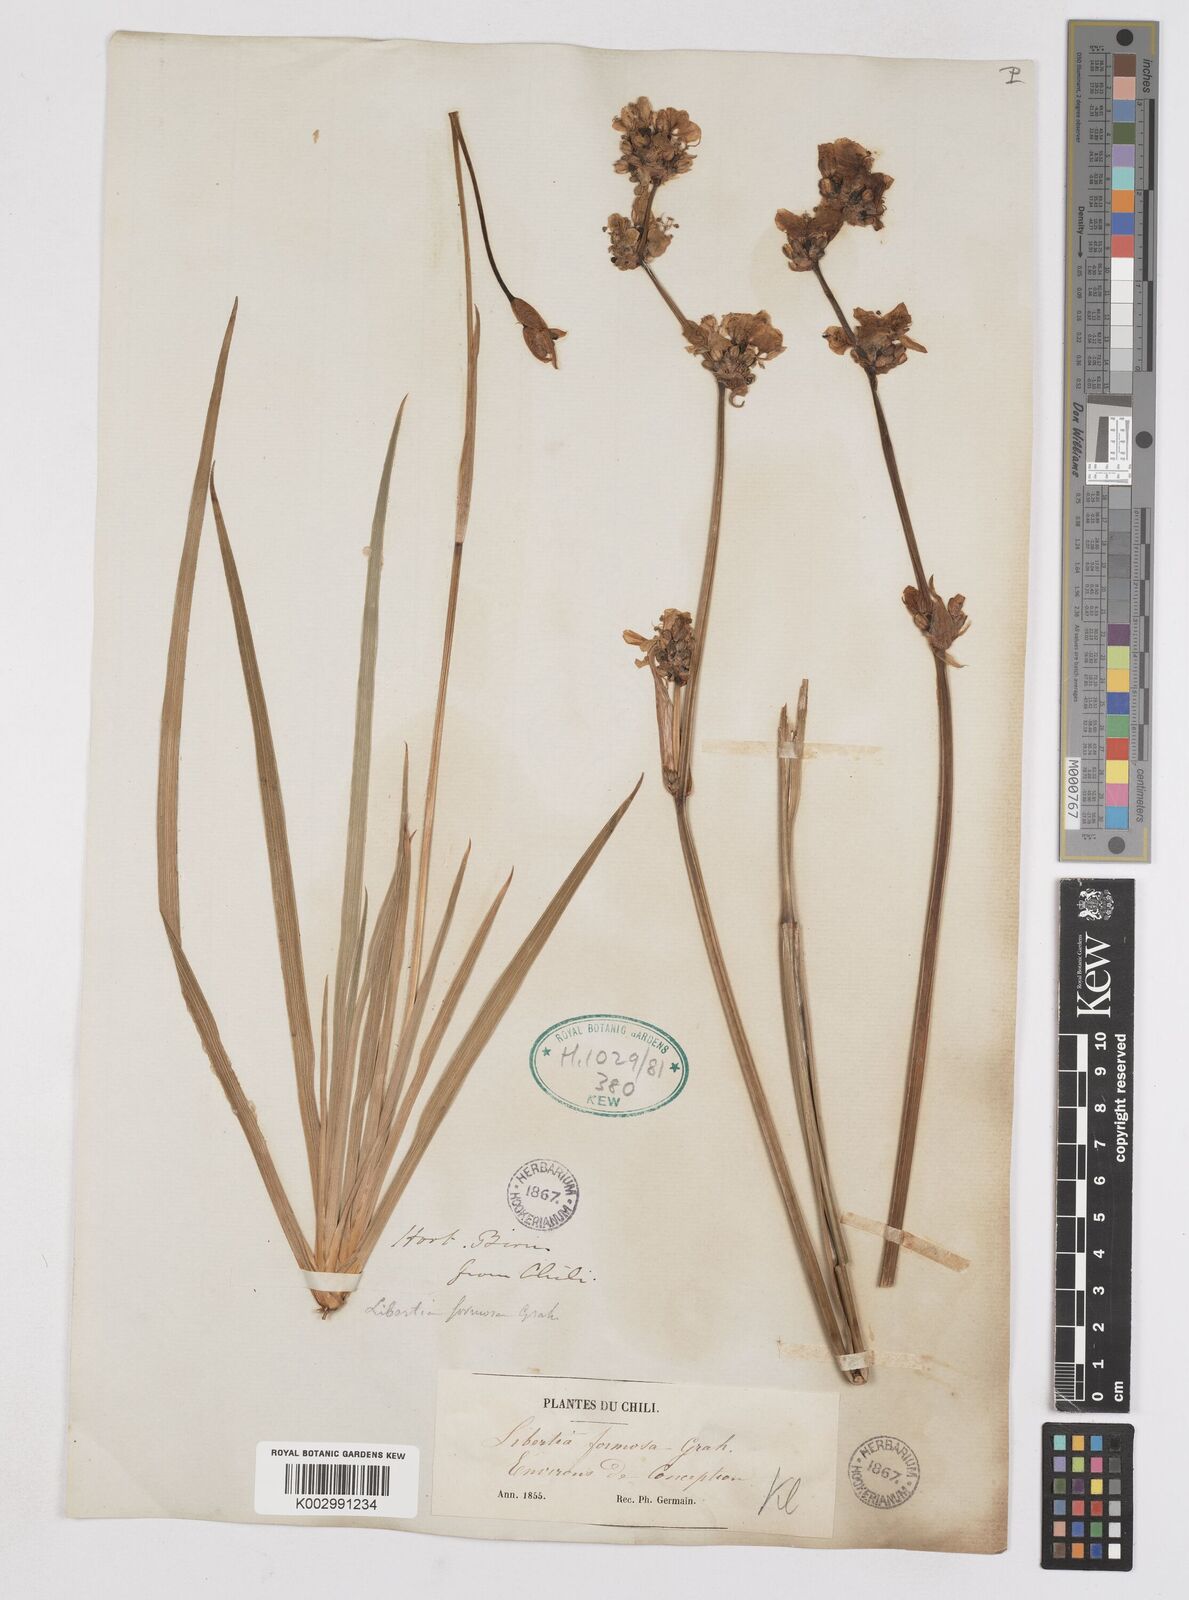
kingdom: Plantae
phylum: Tracheophyta
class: Liliopsida
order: Asparagales
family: Iridaceae
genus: Libertia
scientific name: Libertia chilensis
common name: Satin flower
